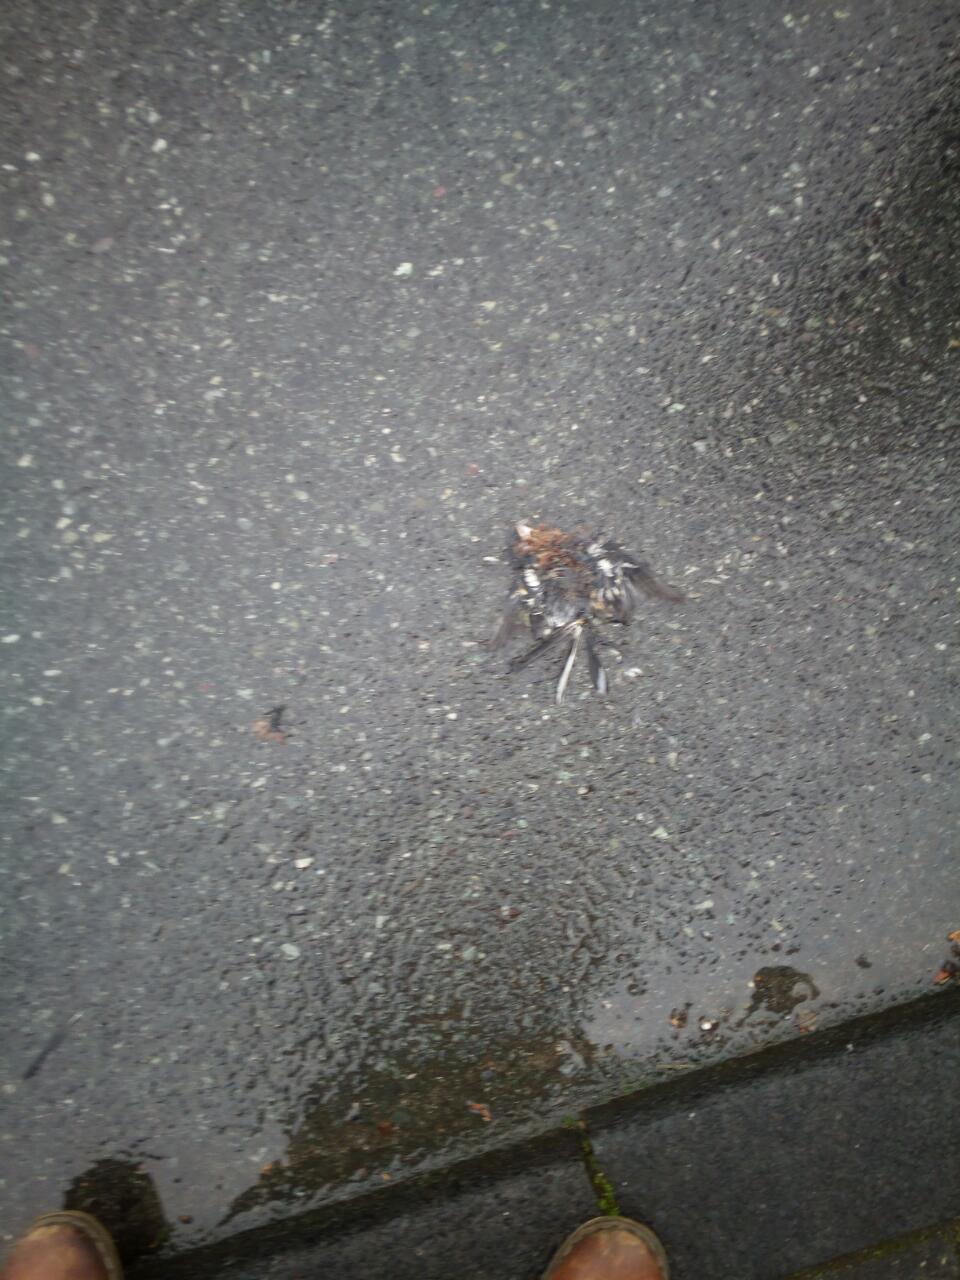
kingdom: Animalia
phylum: Chordata
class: Aves
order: Passeriformes
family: Fringillidae
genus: Fringilla
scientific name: Fringilla coelebs
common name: Common chaffinch
